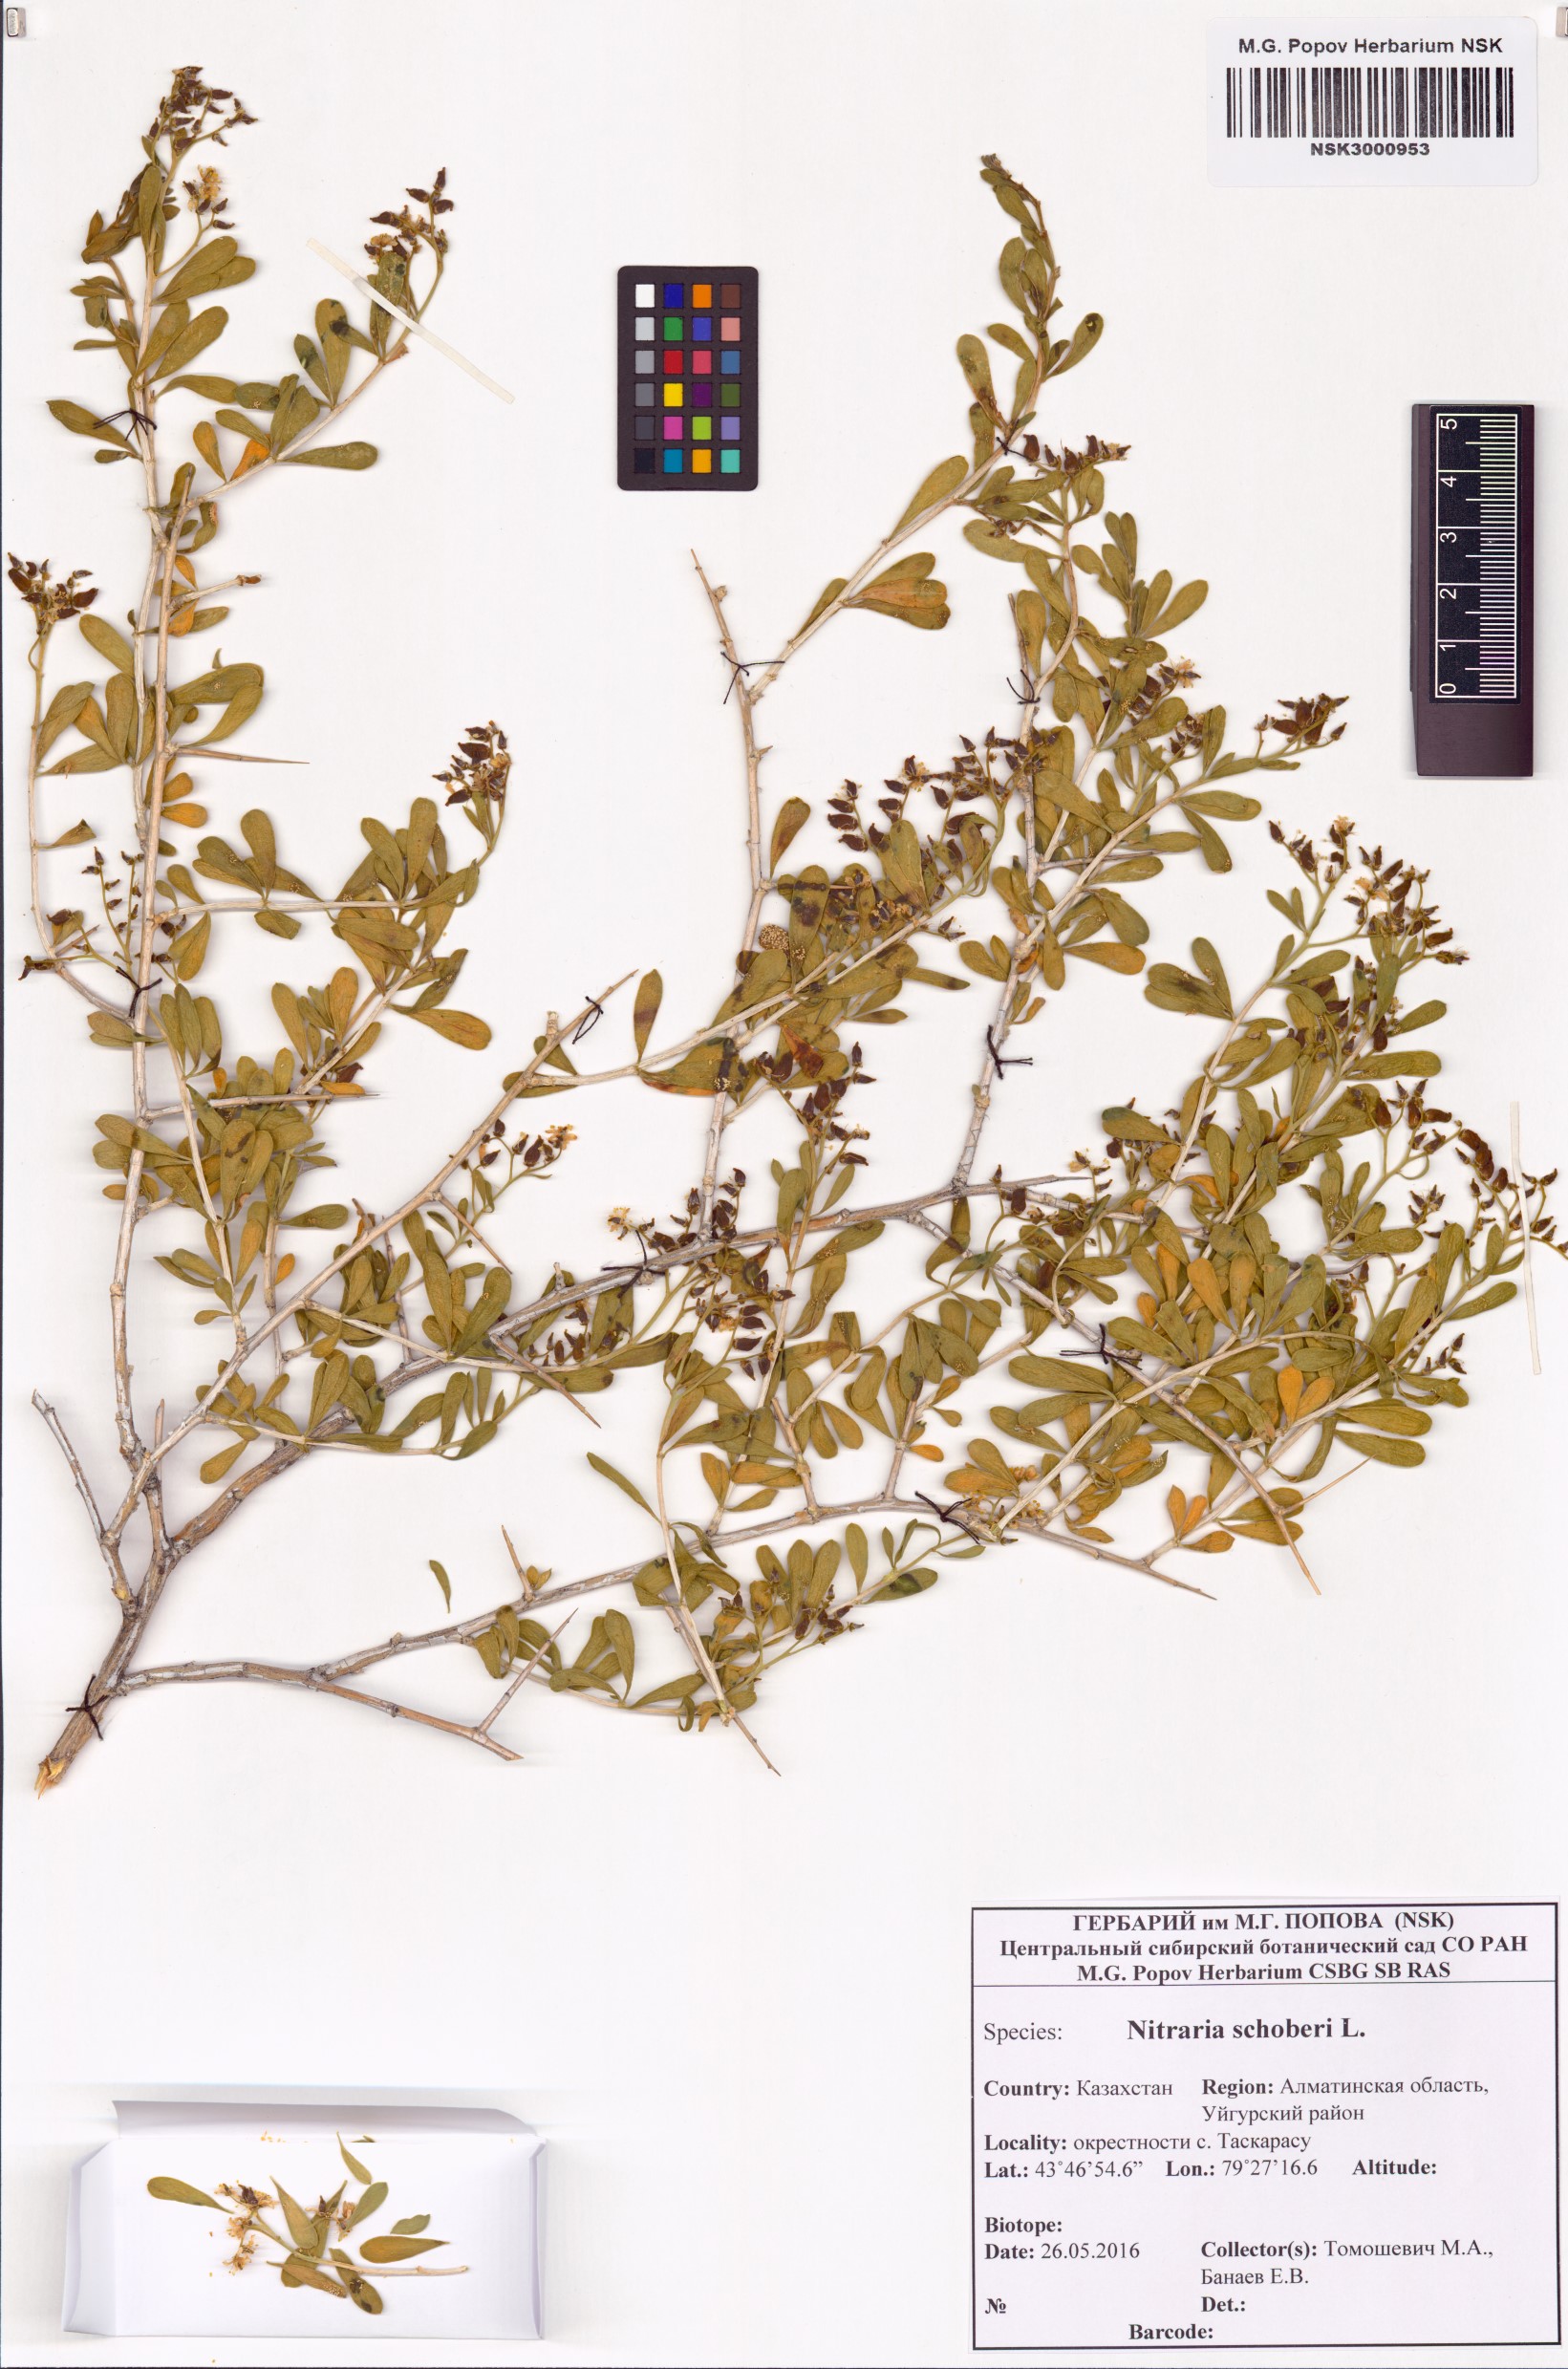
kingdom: Plantae
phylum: Tracheophyta
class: Magnoliopsida
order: Sapindales
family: Nitrariaceae
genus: Nitraria
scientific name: Nitraria schoberi
